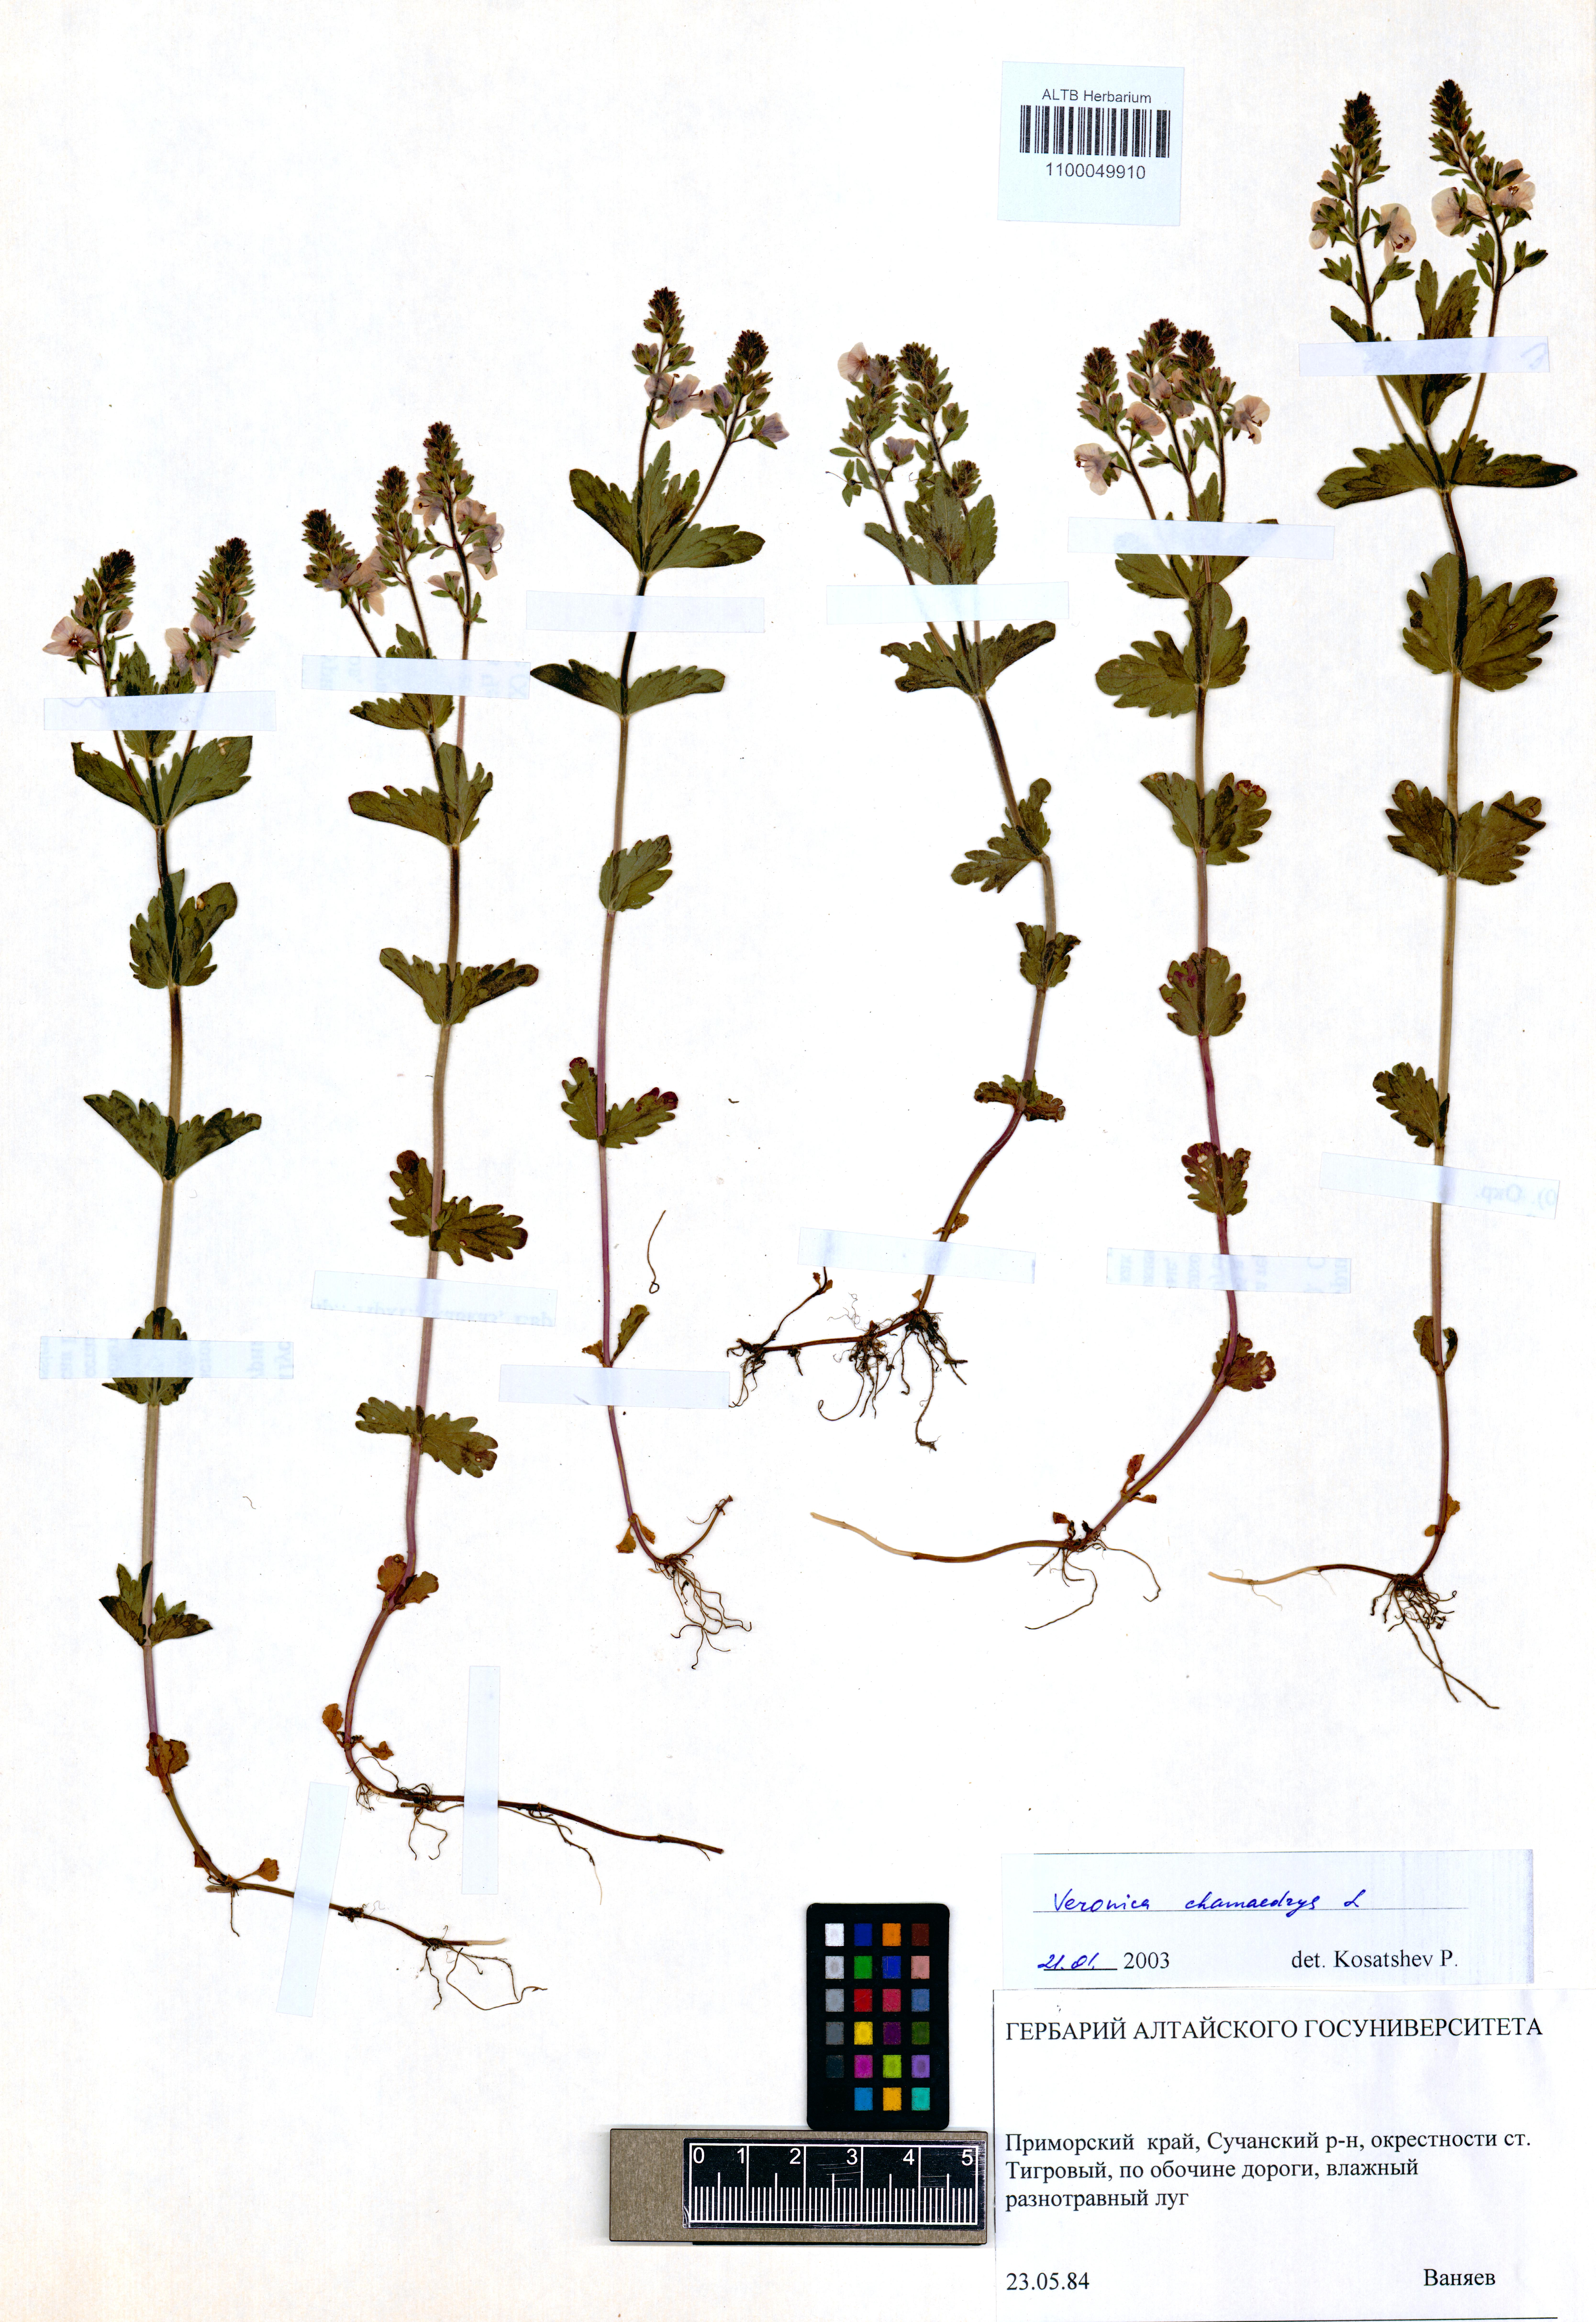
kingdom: Plantae
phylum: Tracheophyta
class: Magnoliopsida
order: Lamiales
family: Plantaginaceae
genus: Veronica
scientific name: Veronica chamaedrys
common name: Germander speedwell
